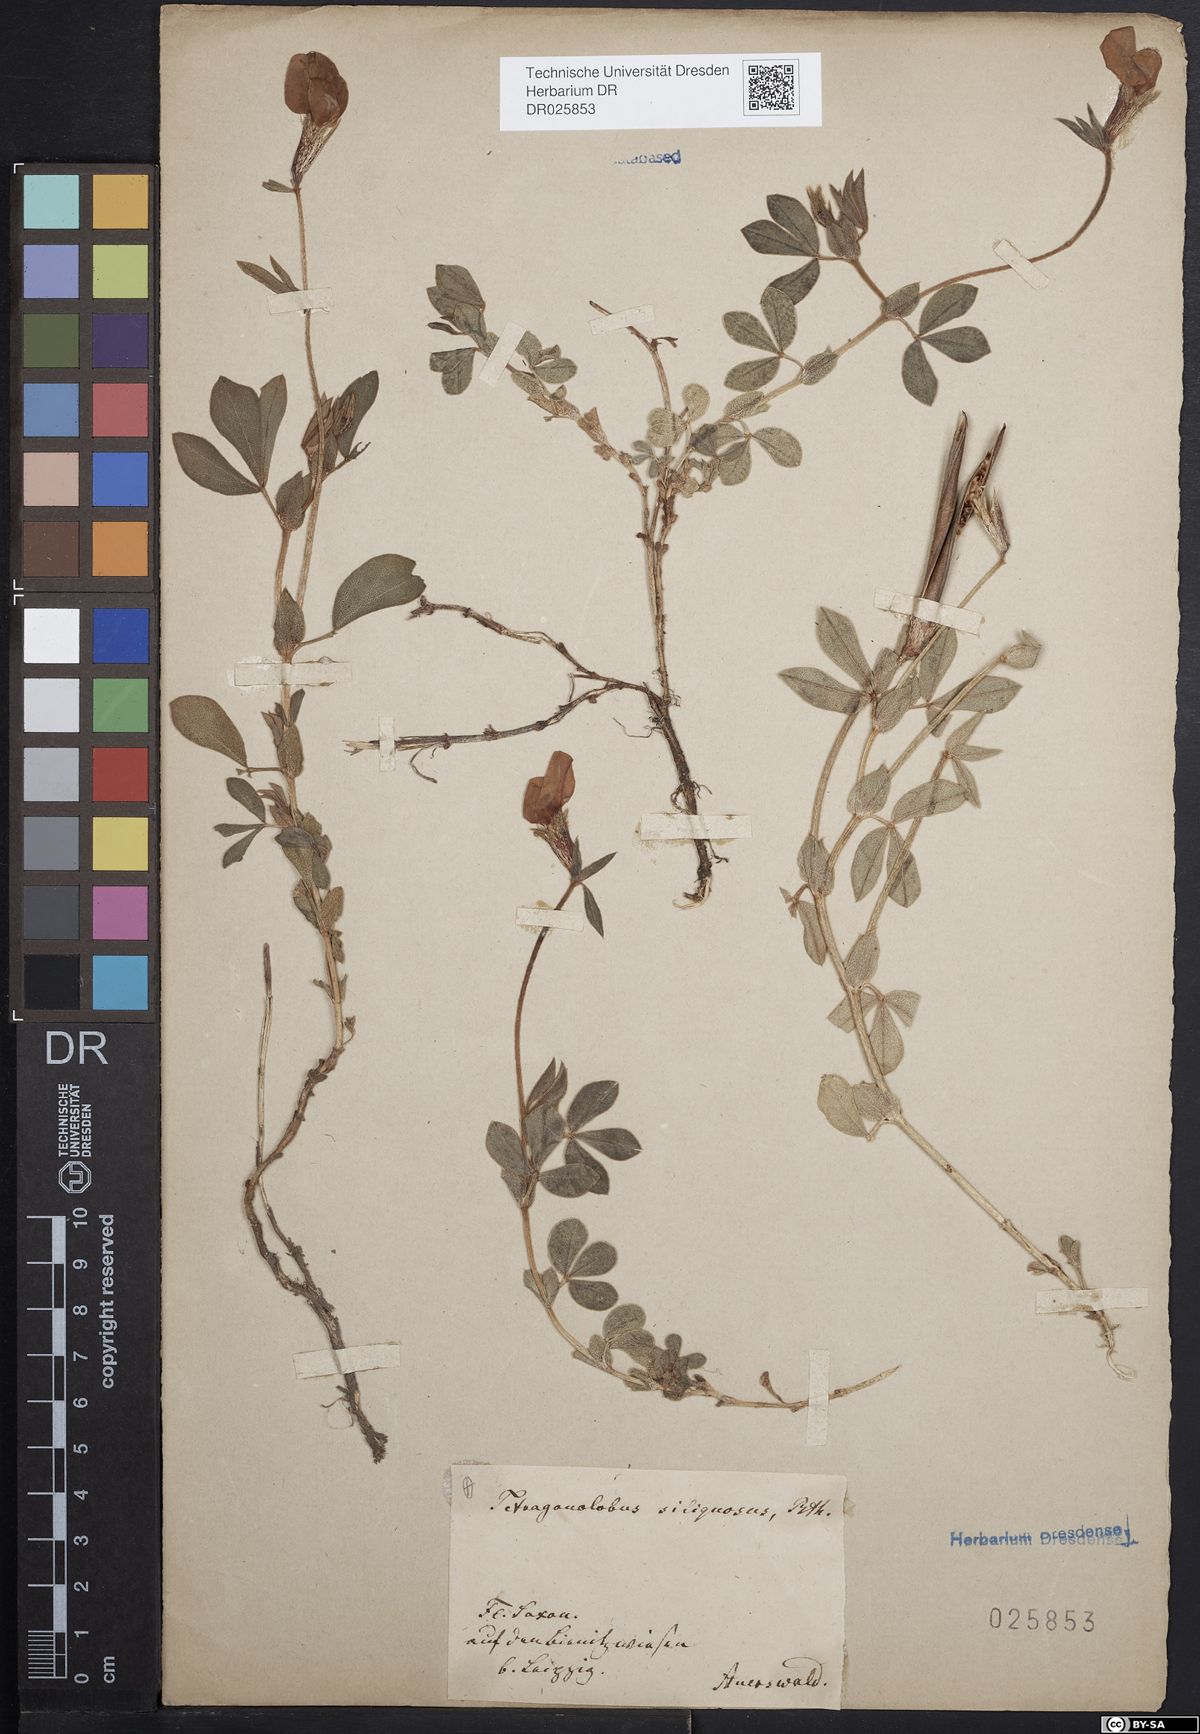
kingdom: Plantae
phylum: Tracheophyta
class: Magnoliopsida
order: Fabales
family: Fabaceae
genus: Lotus
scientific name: Lotus maritimus
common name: Dragon's-teeth
